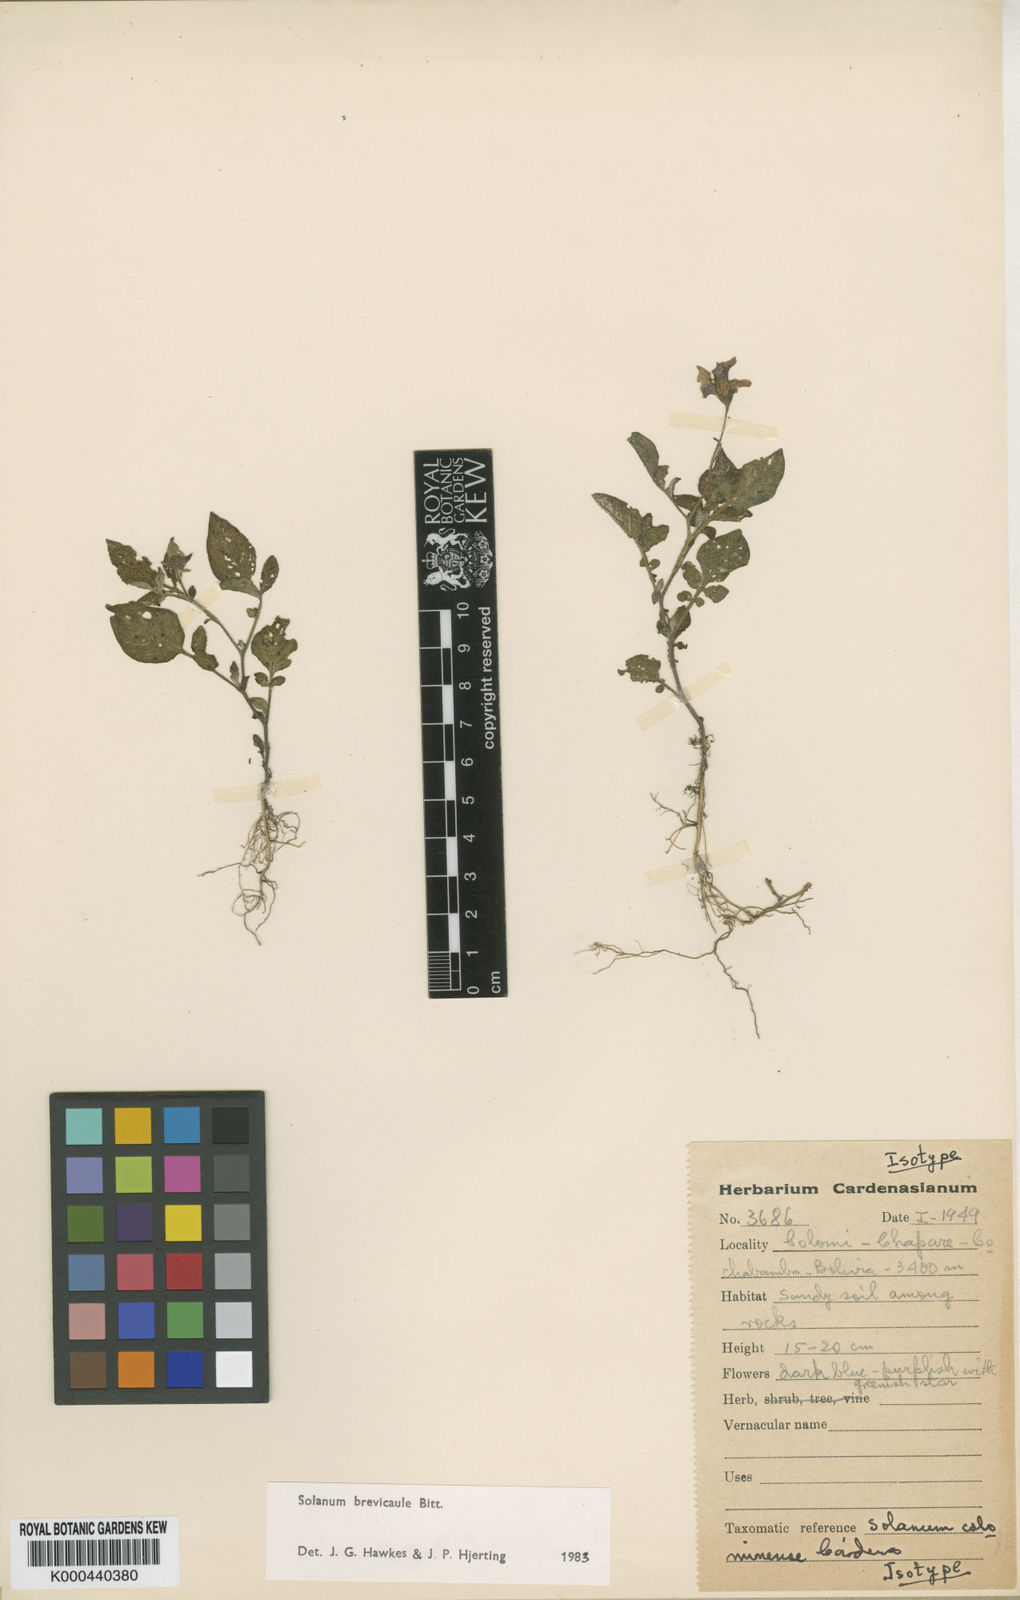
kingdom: Plantae
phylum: Tracheophyta
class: Magnoliopsida
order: Solanales
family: Solanaceae
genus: Solanum
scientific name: Solanum brevicaule
